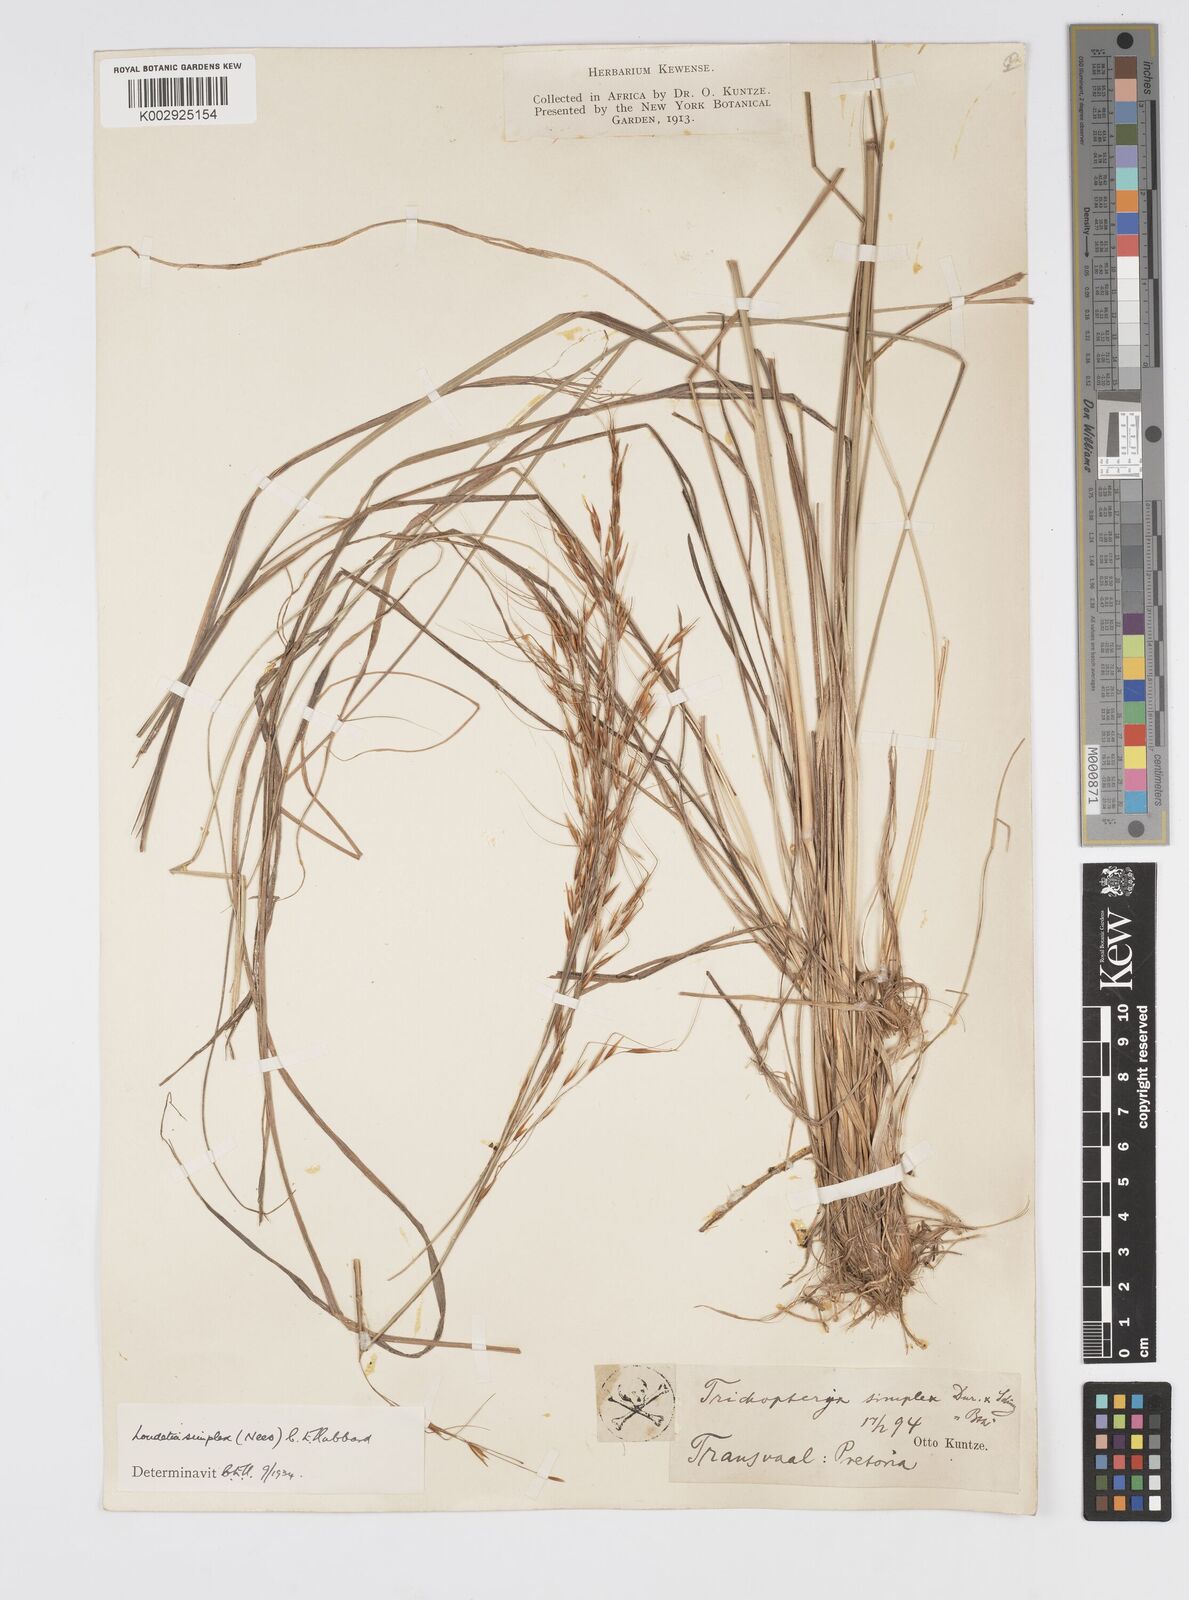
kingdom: Plantae
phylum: Tracheophyta
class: Liliopsida
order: Poales
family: Poaceae
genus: Loudetia
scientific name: Loudetia simplex
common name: Common russet grass
